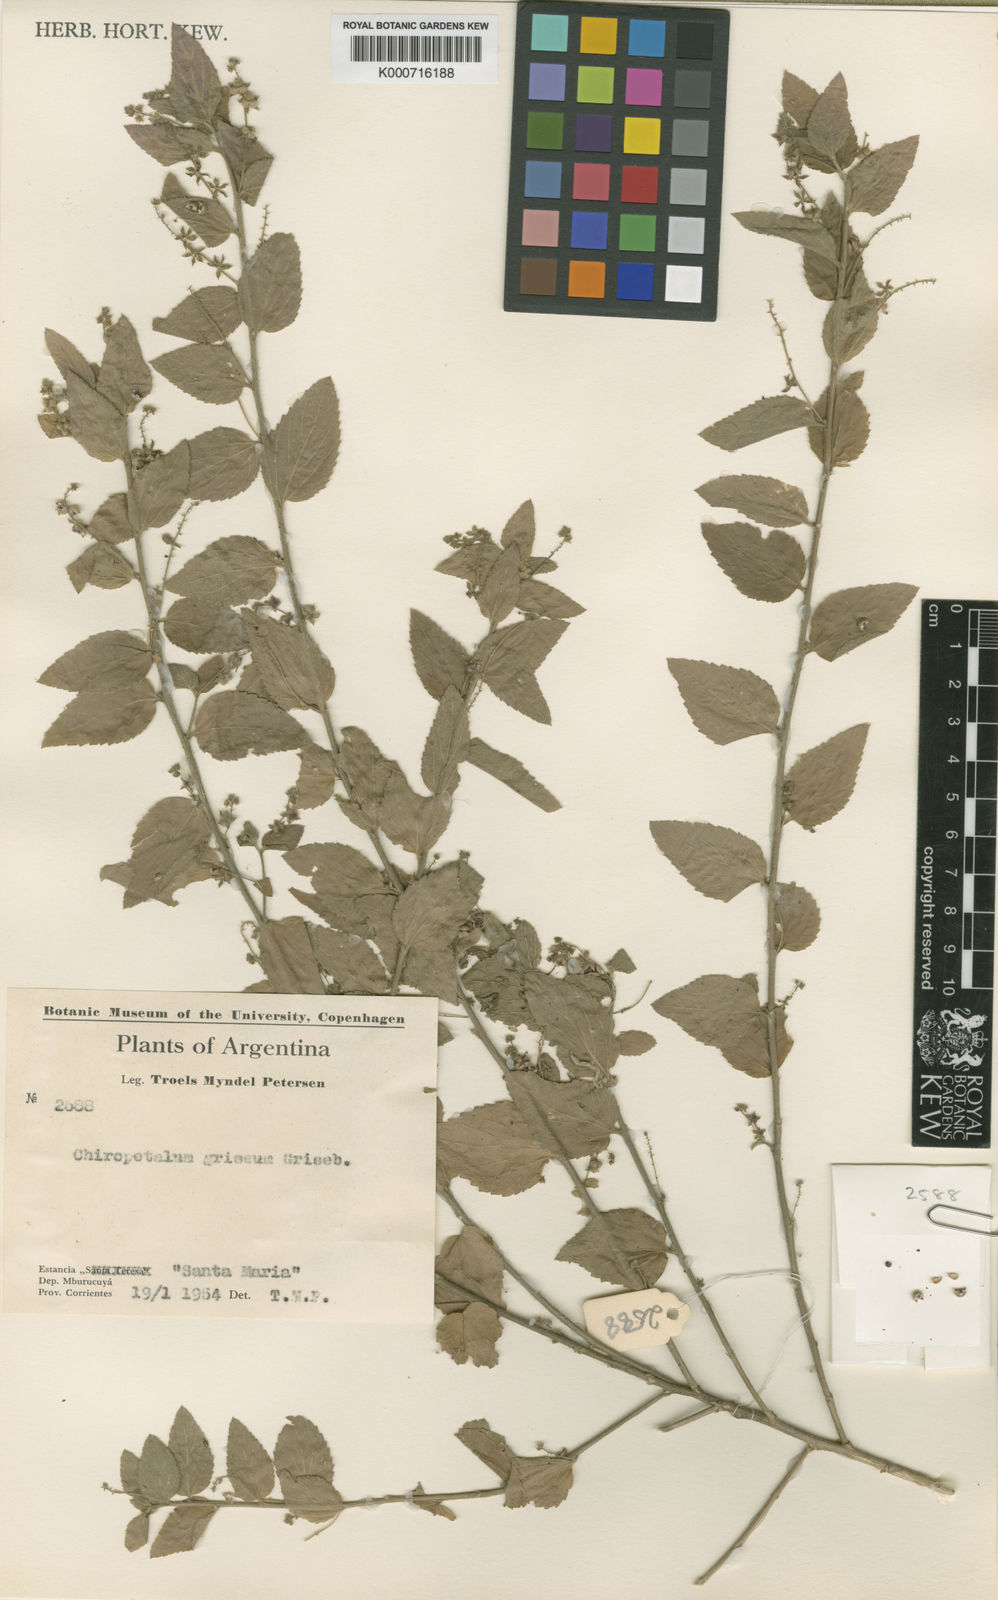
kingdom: Plantae
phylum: Tracheophyta
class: Magnoliopsida
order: Malpighiales
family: Euphorbiaceae
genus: Chiropetalum
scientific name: Chiropetalum griseum
